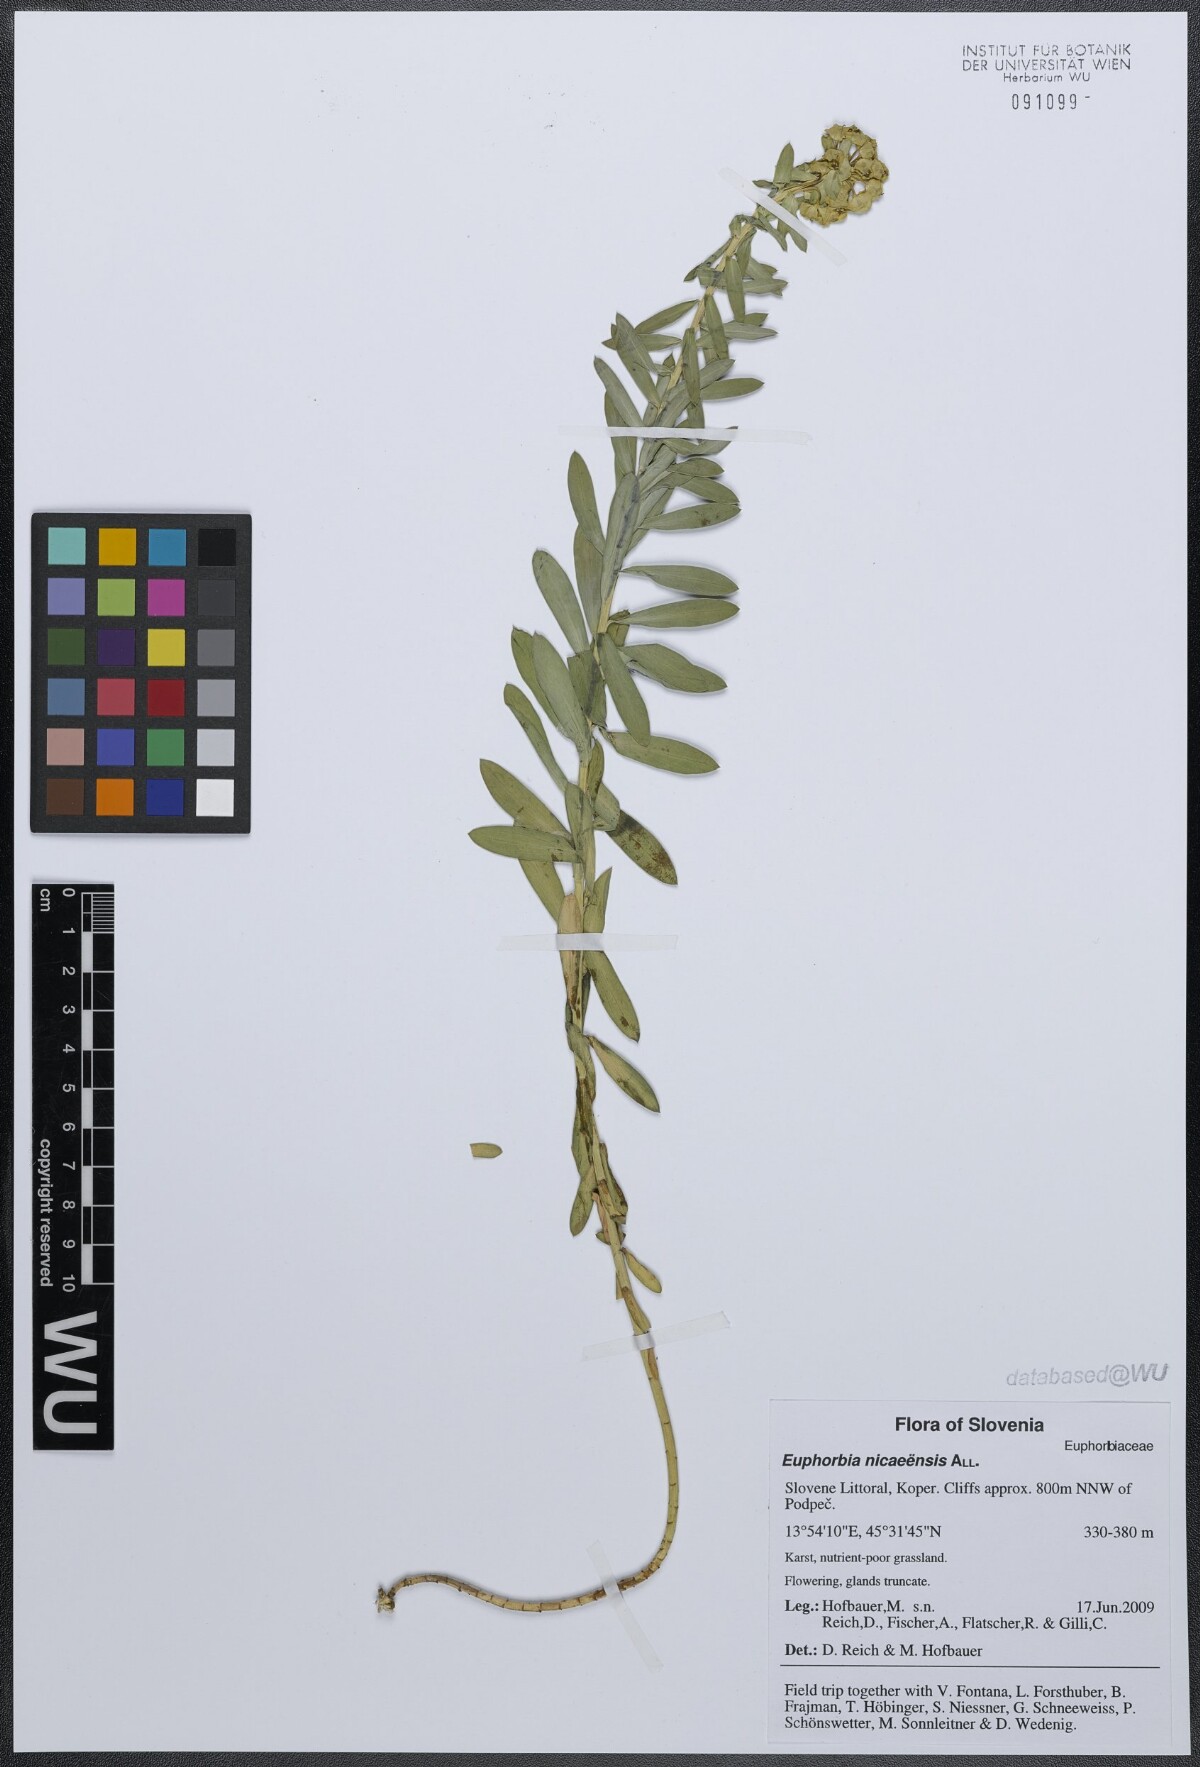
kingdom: Plantae
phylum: Tracheophyta
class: Magnoliopsida
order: Malpighiales
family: Euphorbiaceae
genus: Euphorbia
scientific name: Euphorbia nicaeensis
